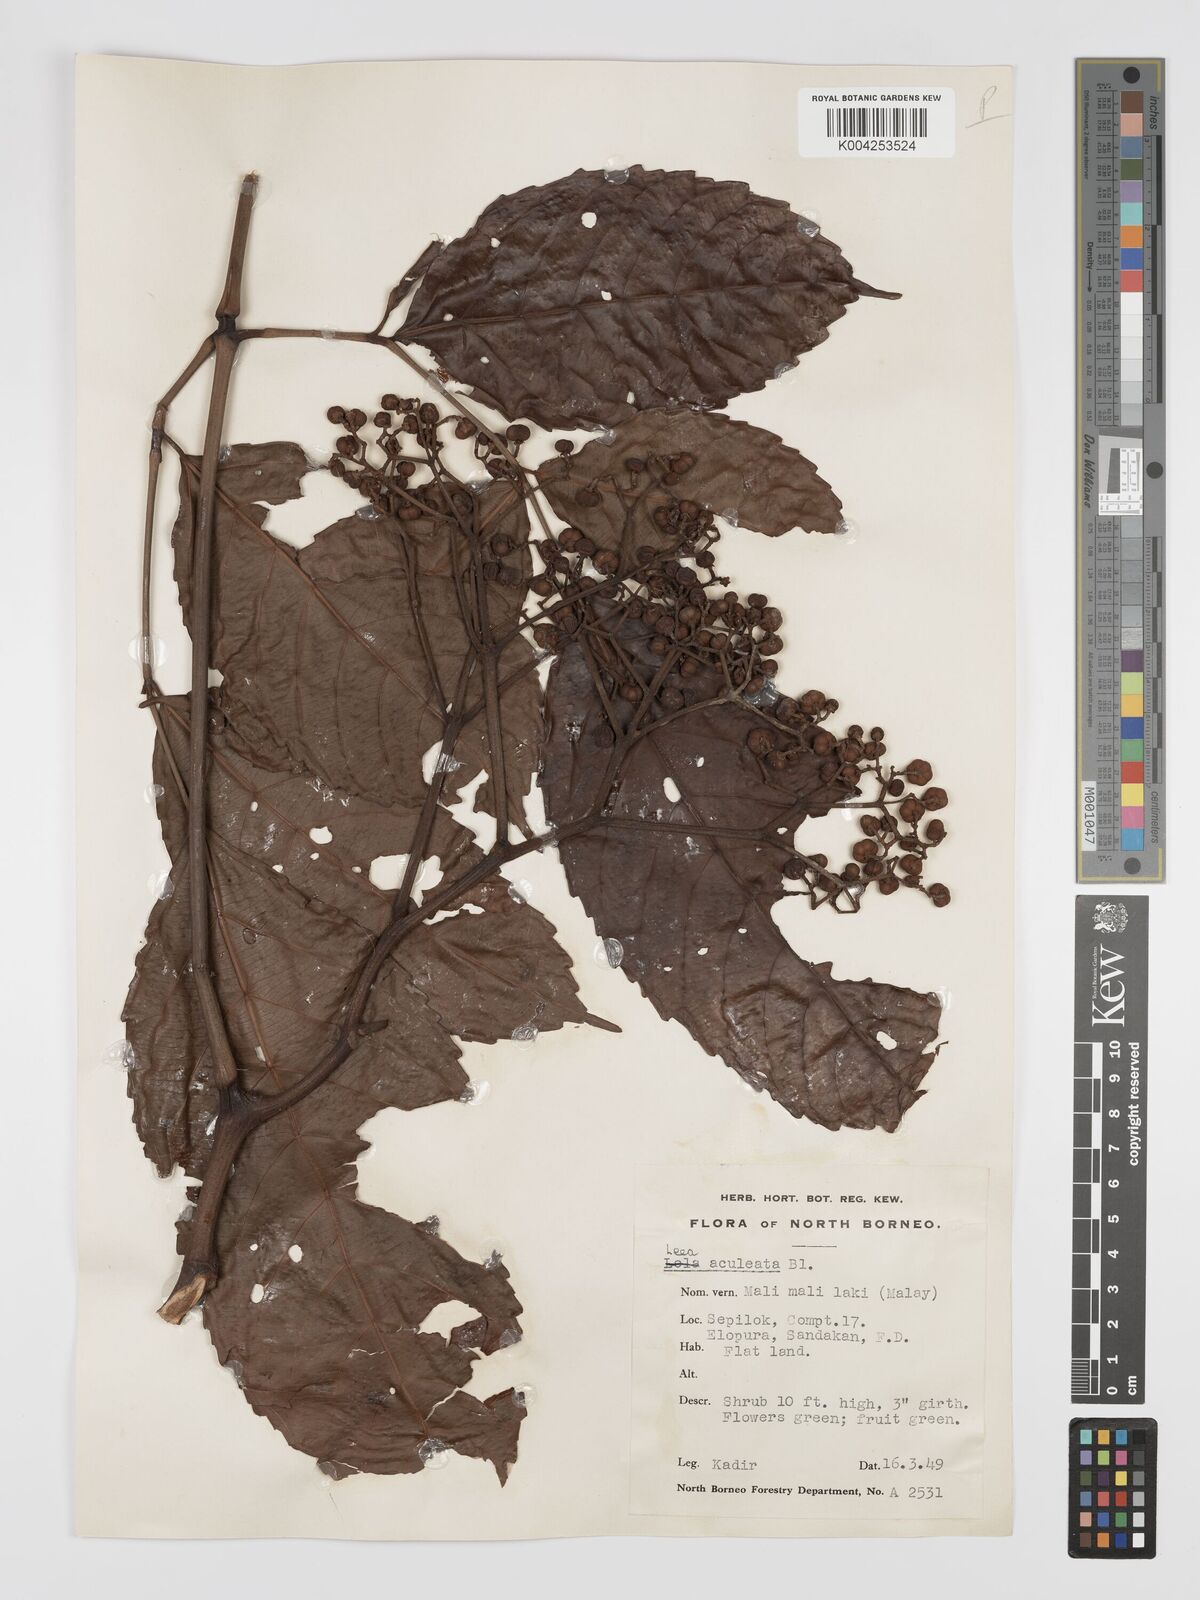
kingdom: Plantae
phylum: Tracheophyta
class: Magnoliopsida
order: Vitales
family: Vitaceae
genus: Leea
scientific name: Leea aculeata
